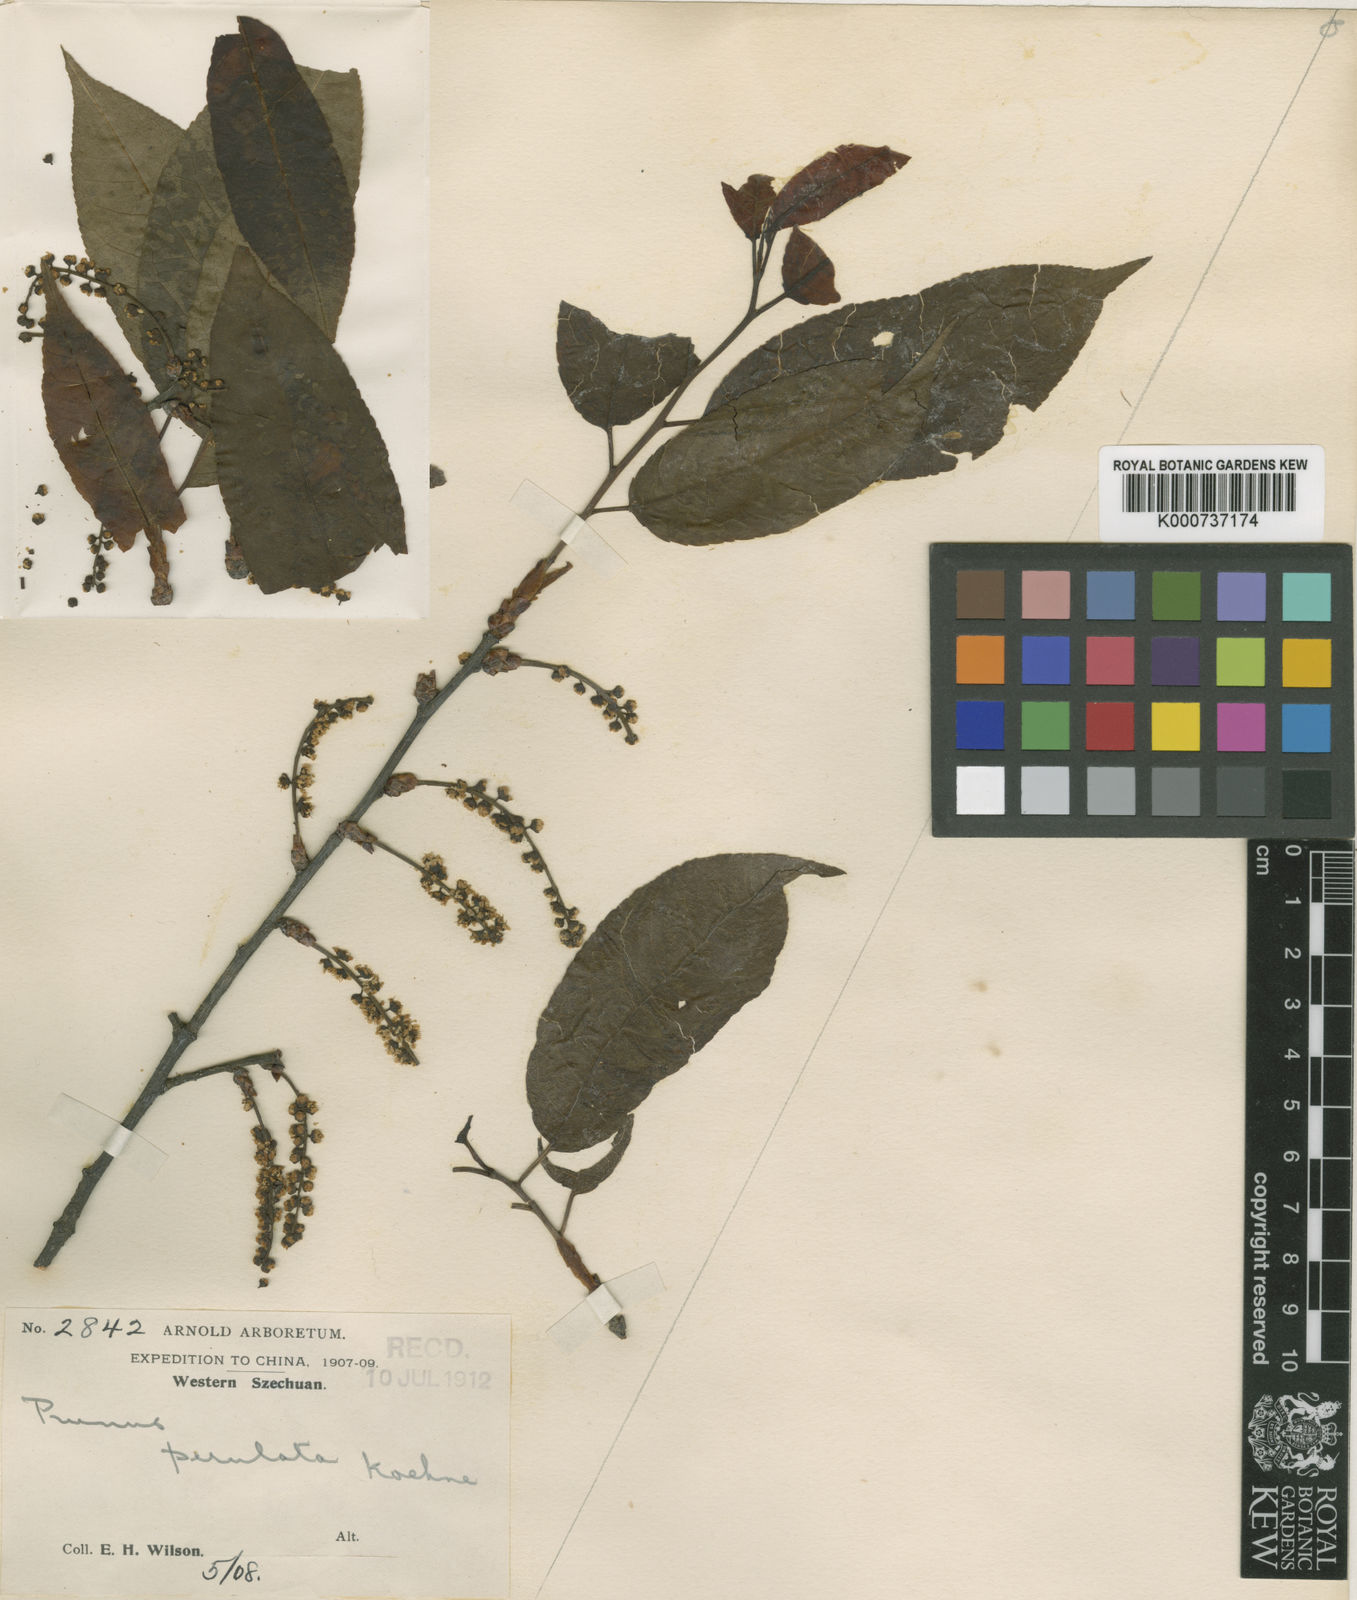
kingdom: Plantae
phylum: Tracheophyta
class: Magnoliopsida
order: Rosales
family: Rosaceae
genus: Prunus
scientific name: Prunus perulata
